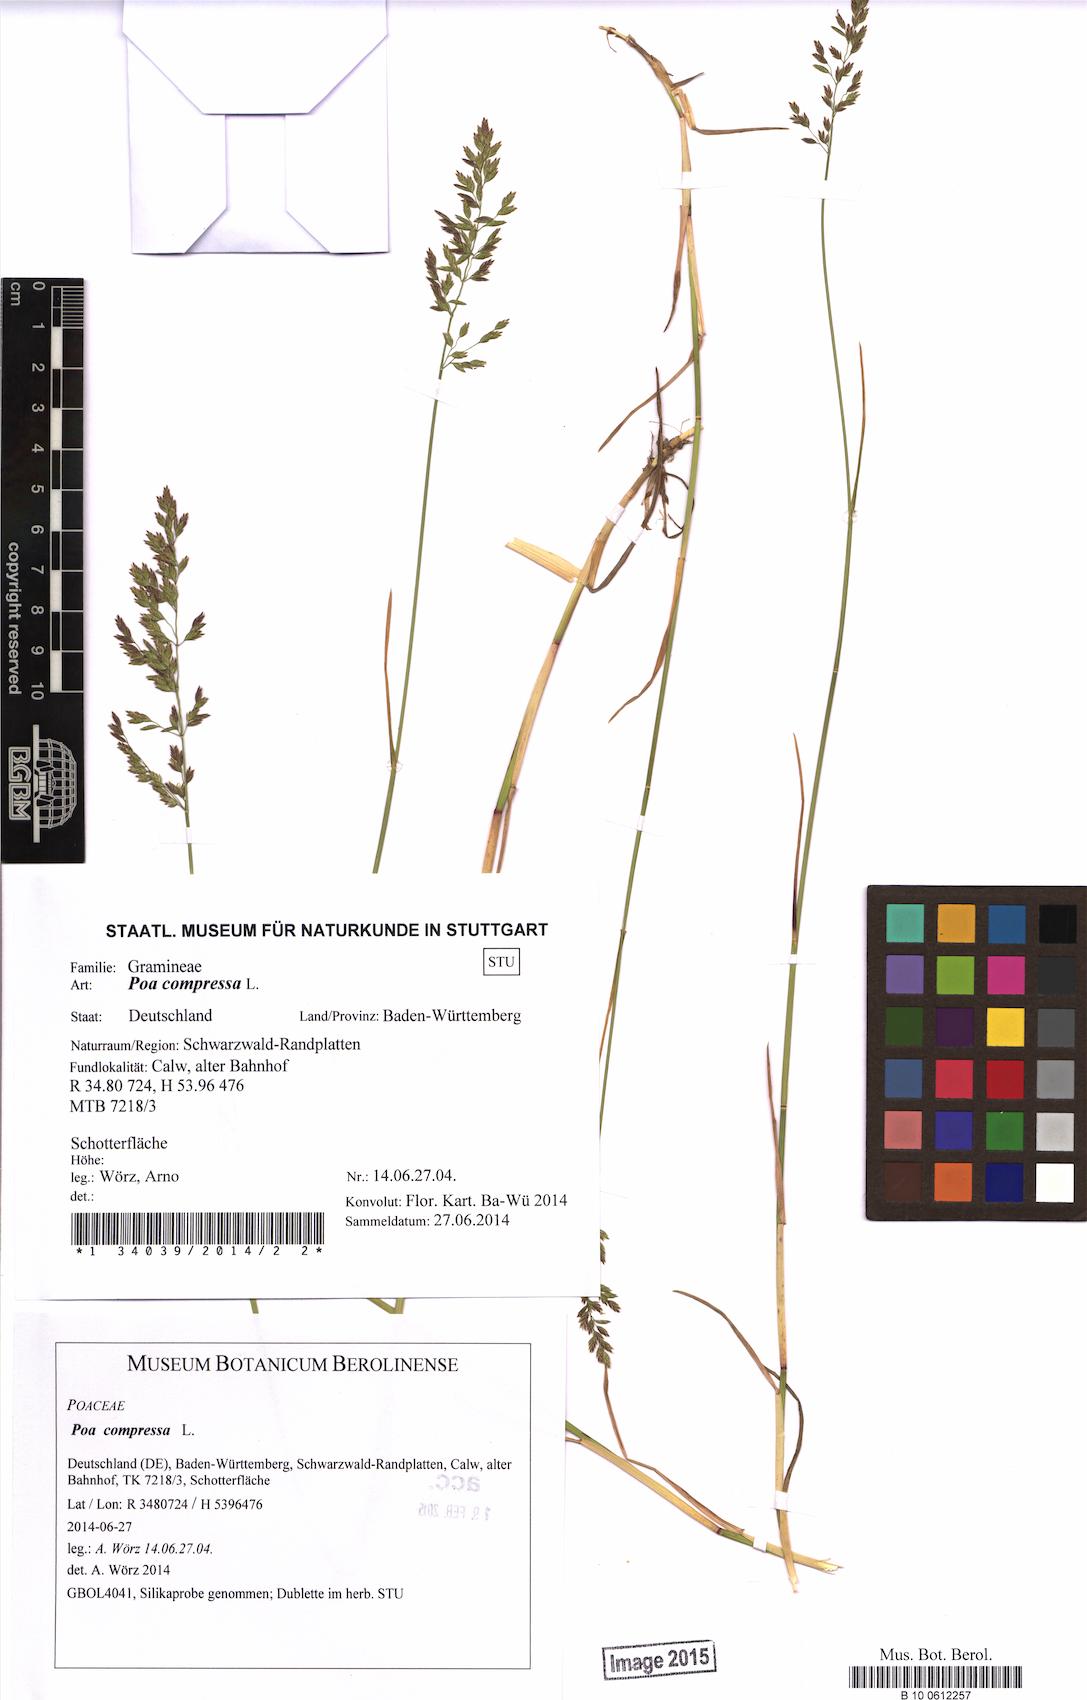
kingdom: Plantae
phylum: Tracheophyta
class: Liliopsida
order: Poales
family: Poaceae
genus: Poa
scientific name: Poa compressa
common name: Canada bluegrass
